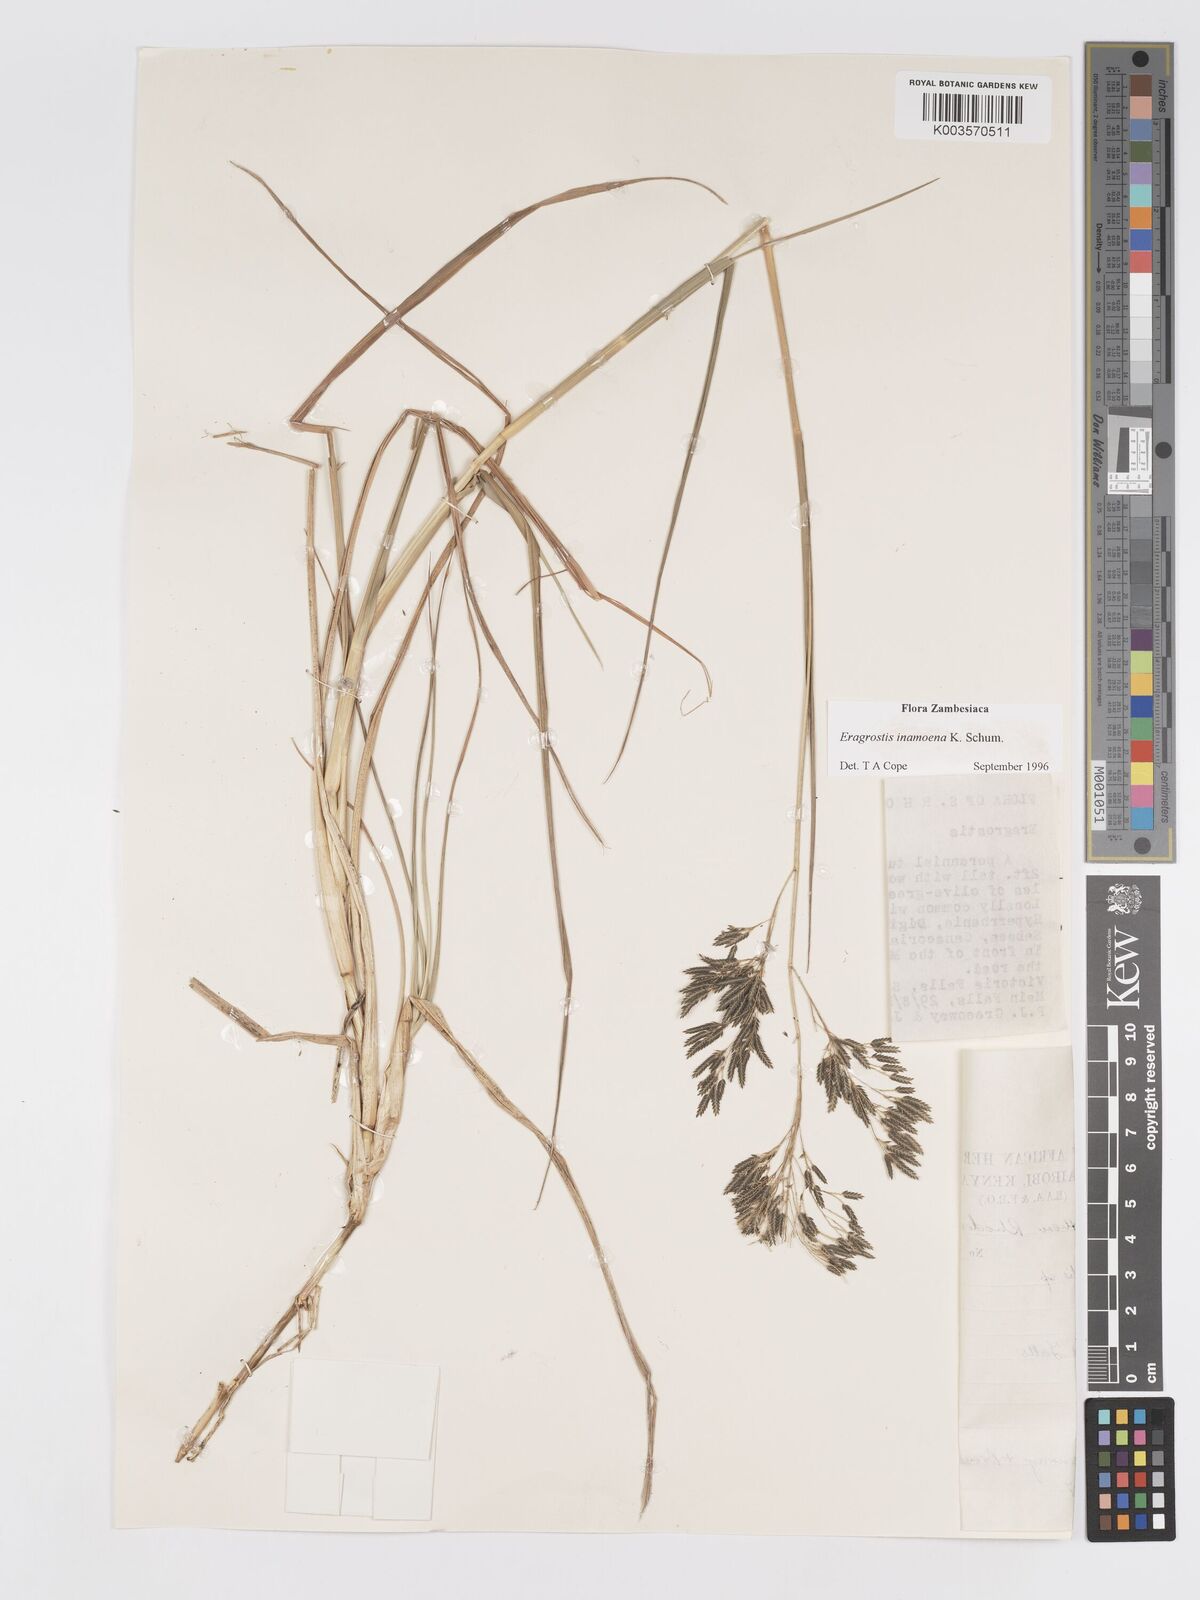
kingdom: Plantae
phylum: Tracheophyta
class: Liliopsida
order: Poales
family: Poaceae
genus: Eragrostis
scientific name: Eragrostis inamoena
